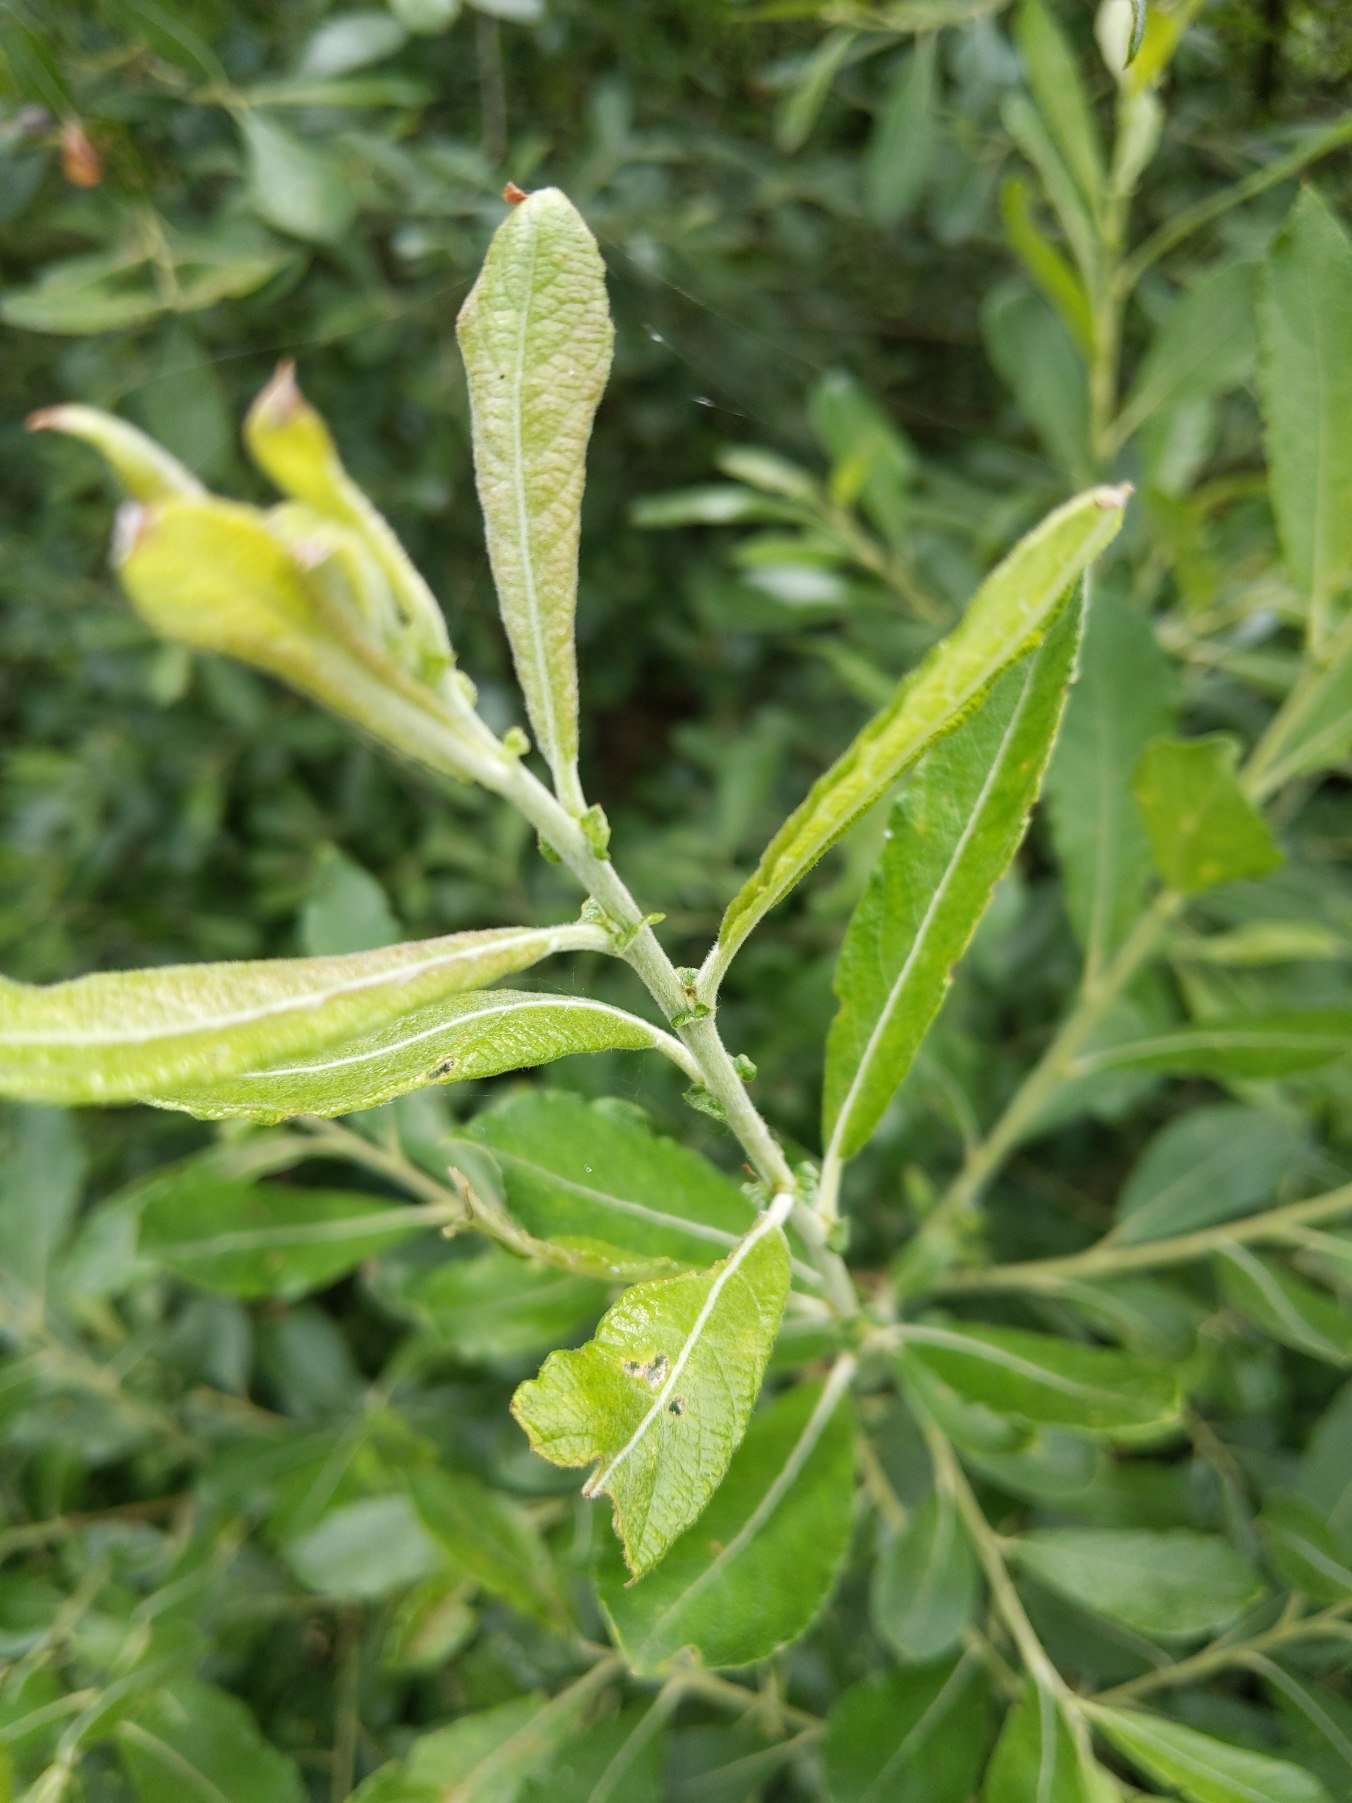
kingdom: Plantae
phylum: Tracheophyta
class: Magnoliopsida
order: Malpighiales
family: Salicaceae
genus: Salix
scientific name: Salix cinerea
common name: Grå-pil
